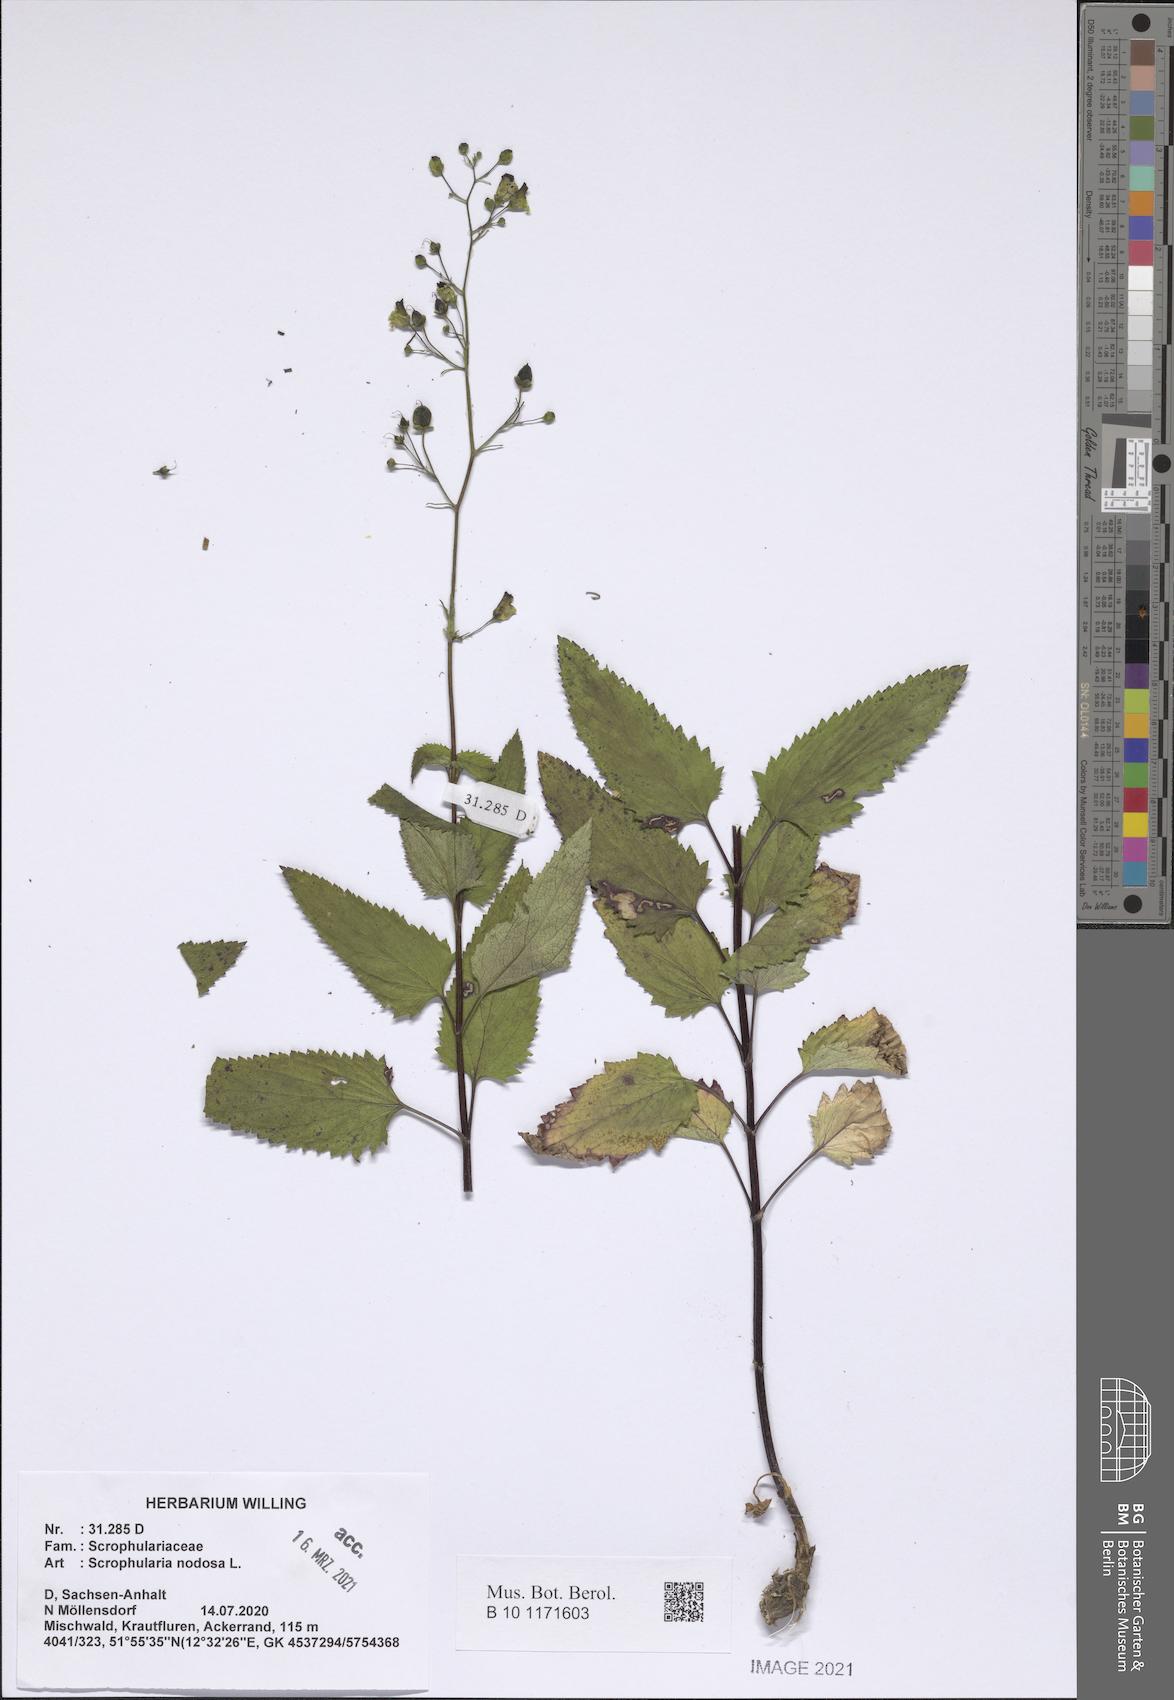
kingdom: Plantae
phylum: Tracheophyta
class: Magnoliopsida
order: Lamiales
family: Scrophulariaceae
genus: Scrophularia
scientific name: Scrophularia nodosa
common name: Common figwort
